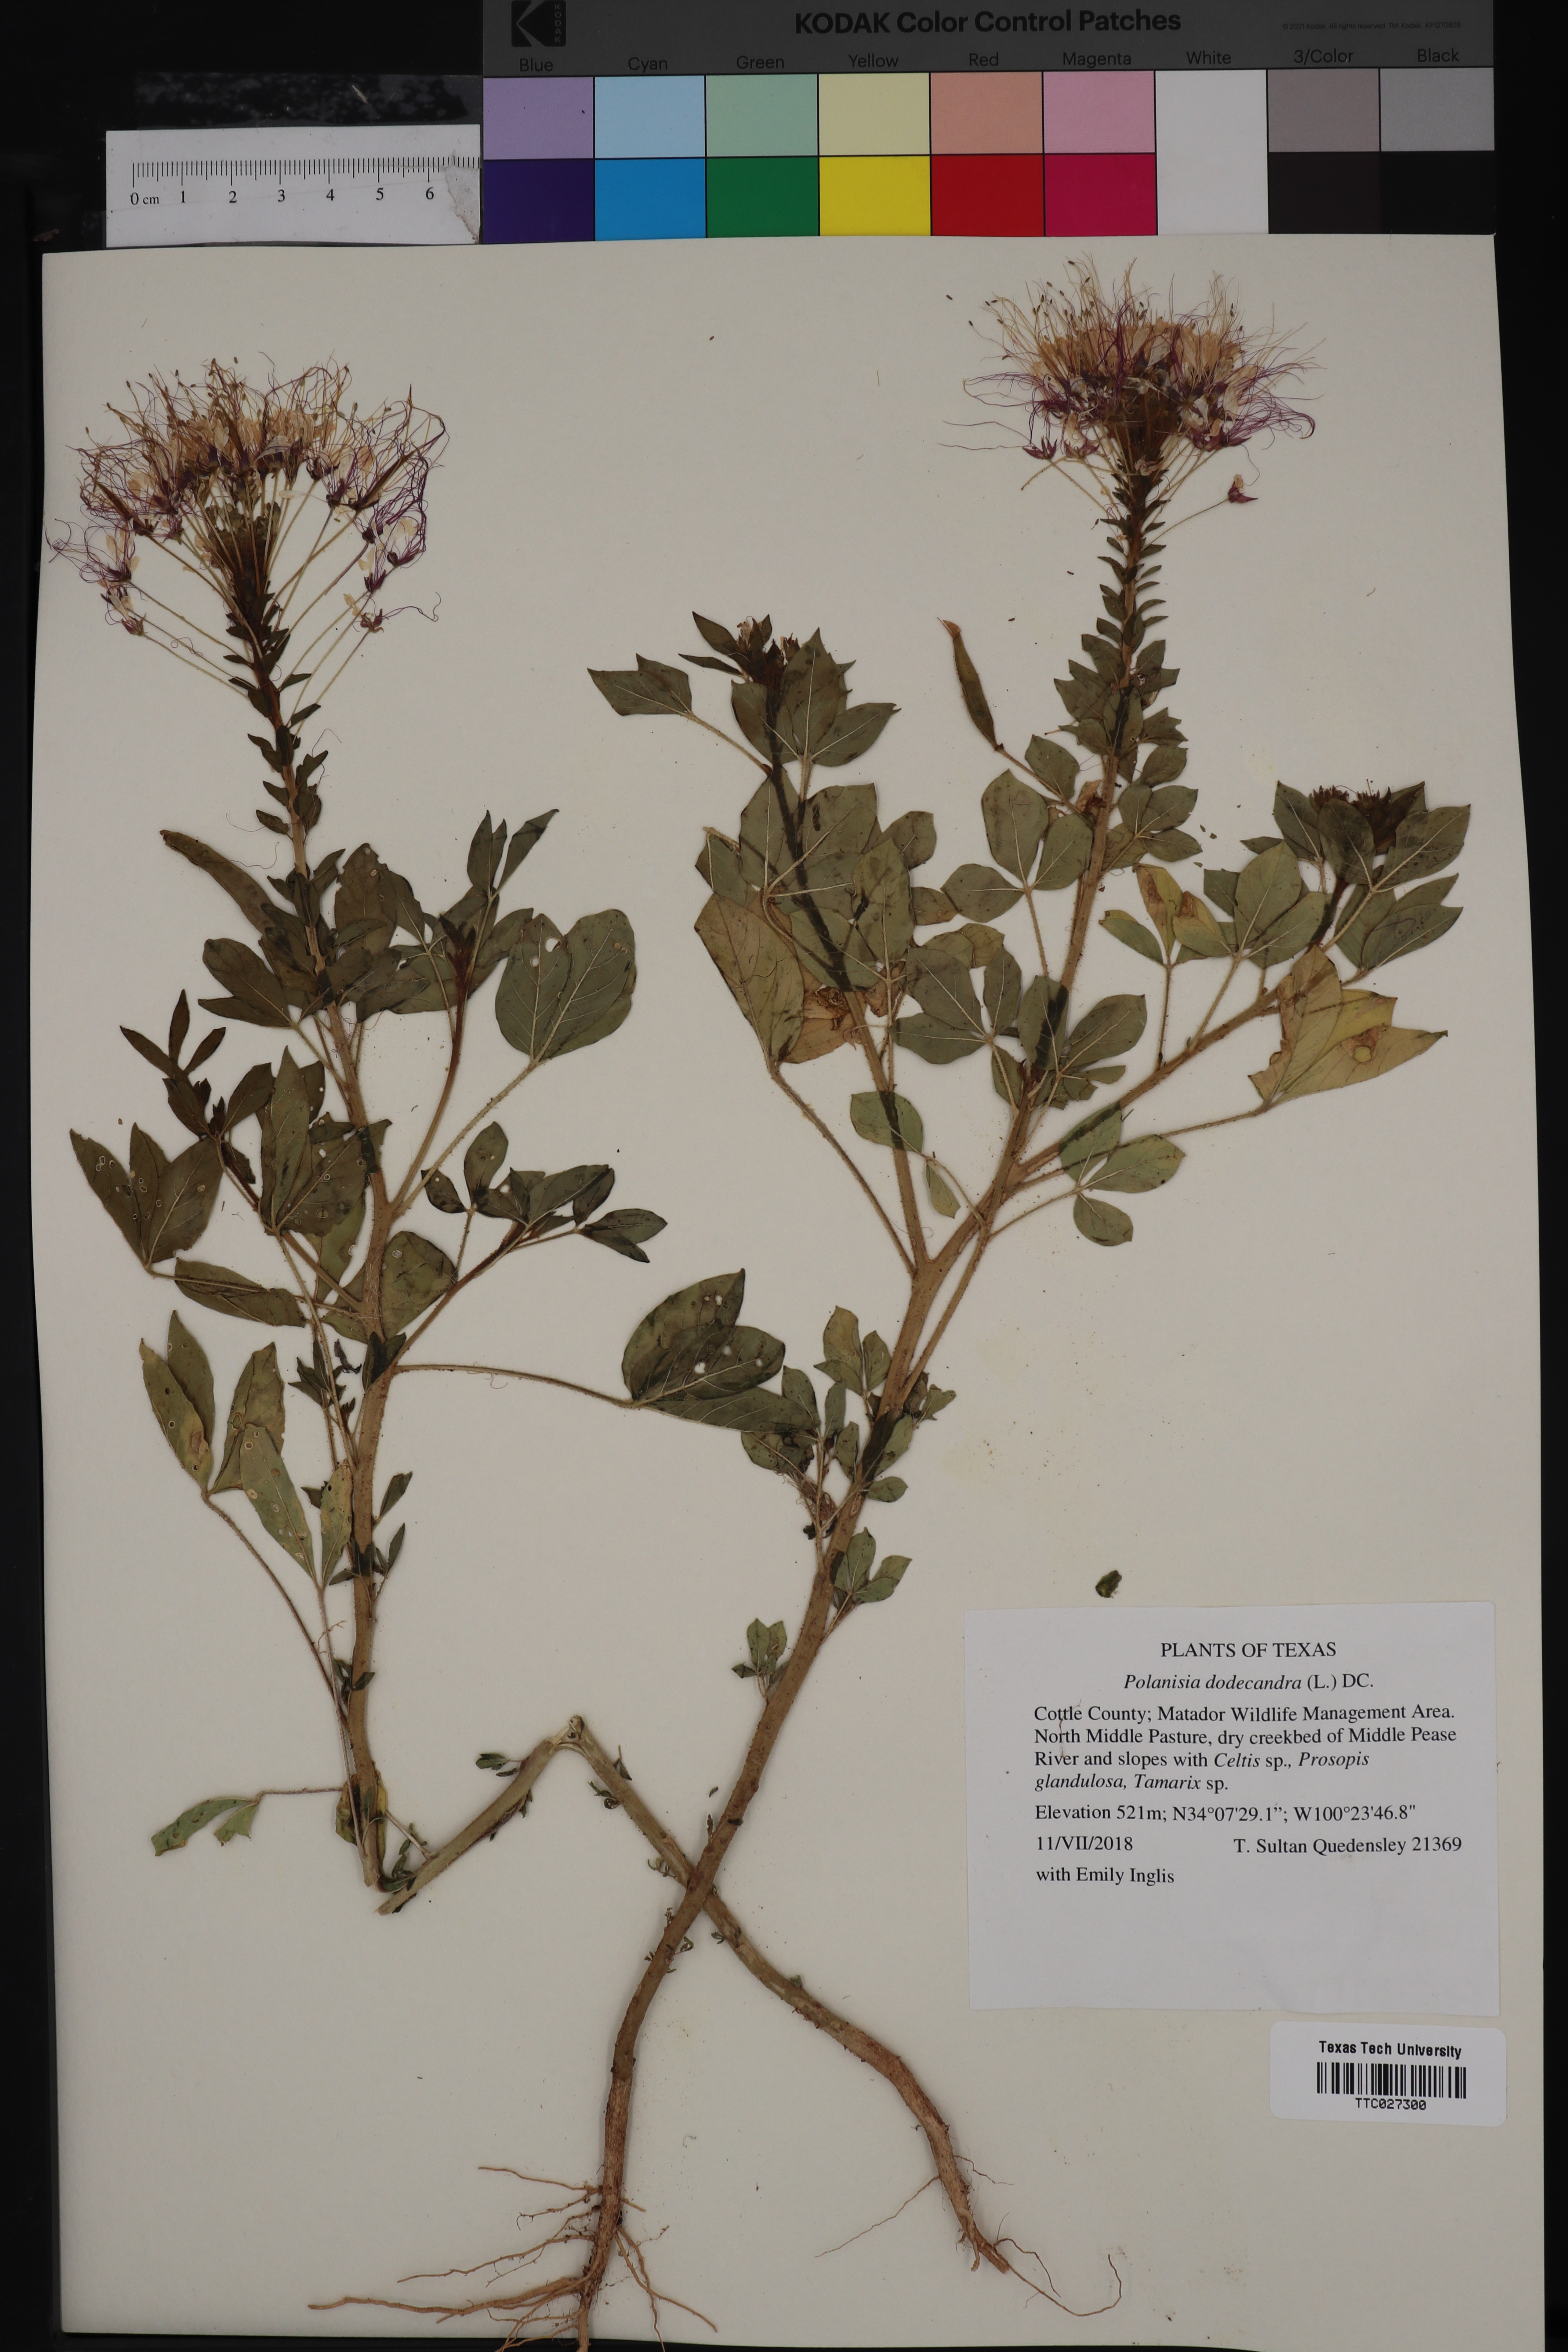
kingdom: Plantae
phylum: Tracheophyta
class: Magnoliopsida
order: Brassicales
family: Cleomaceae
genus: Polanisia
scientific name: Polanisia dodecandra
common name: Clammyweed
